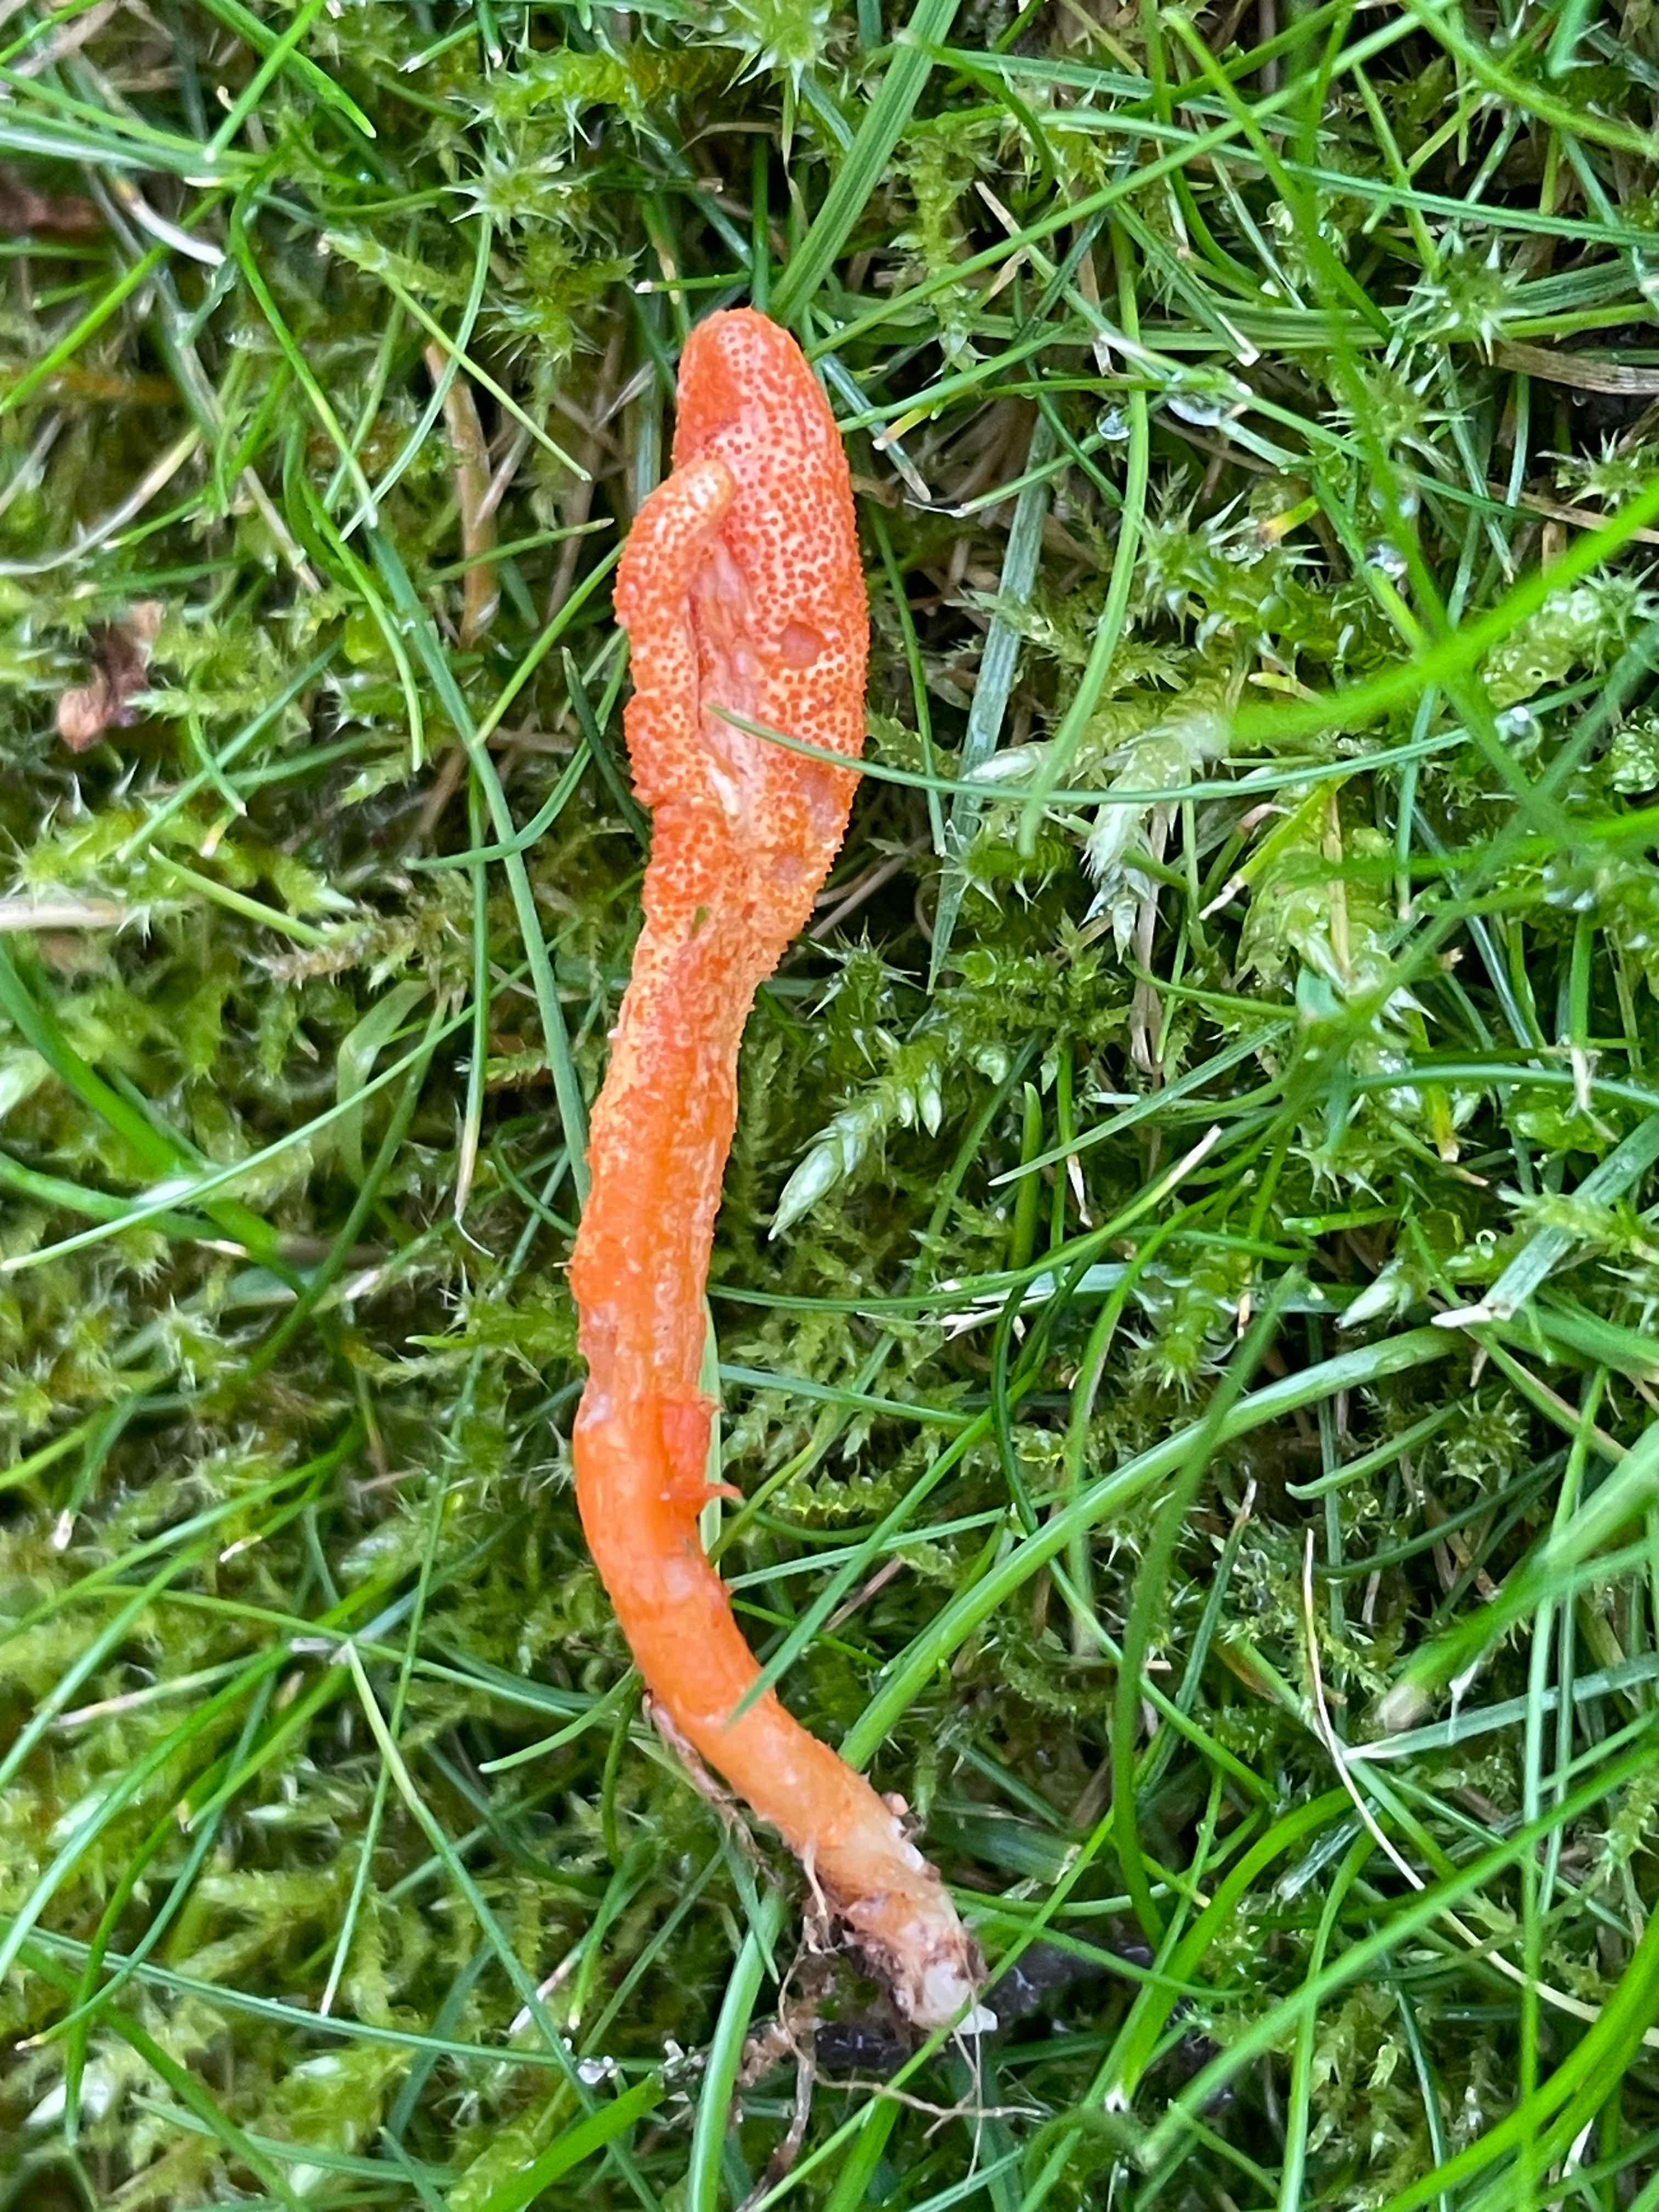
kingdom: Fungi
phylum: Ascomycota
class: Sordariomycetes
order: Hypocreales
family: Cordycipitaceae
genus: Cordyceps
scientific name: Cordyceps militaris
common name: puppe-snyltekølle
